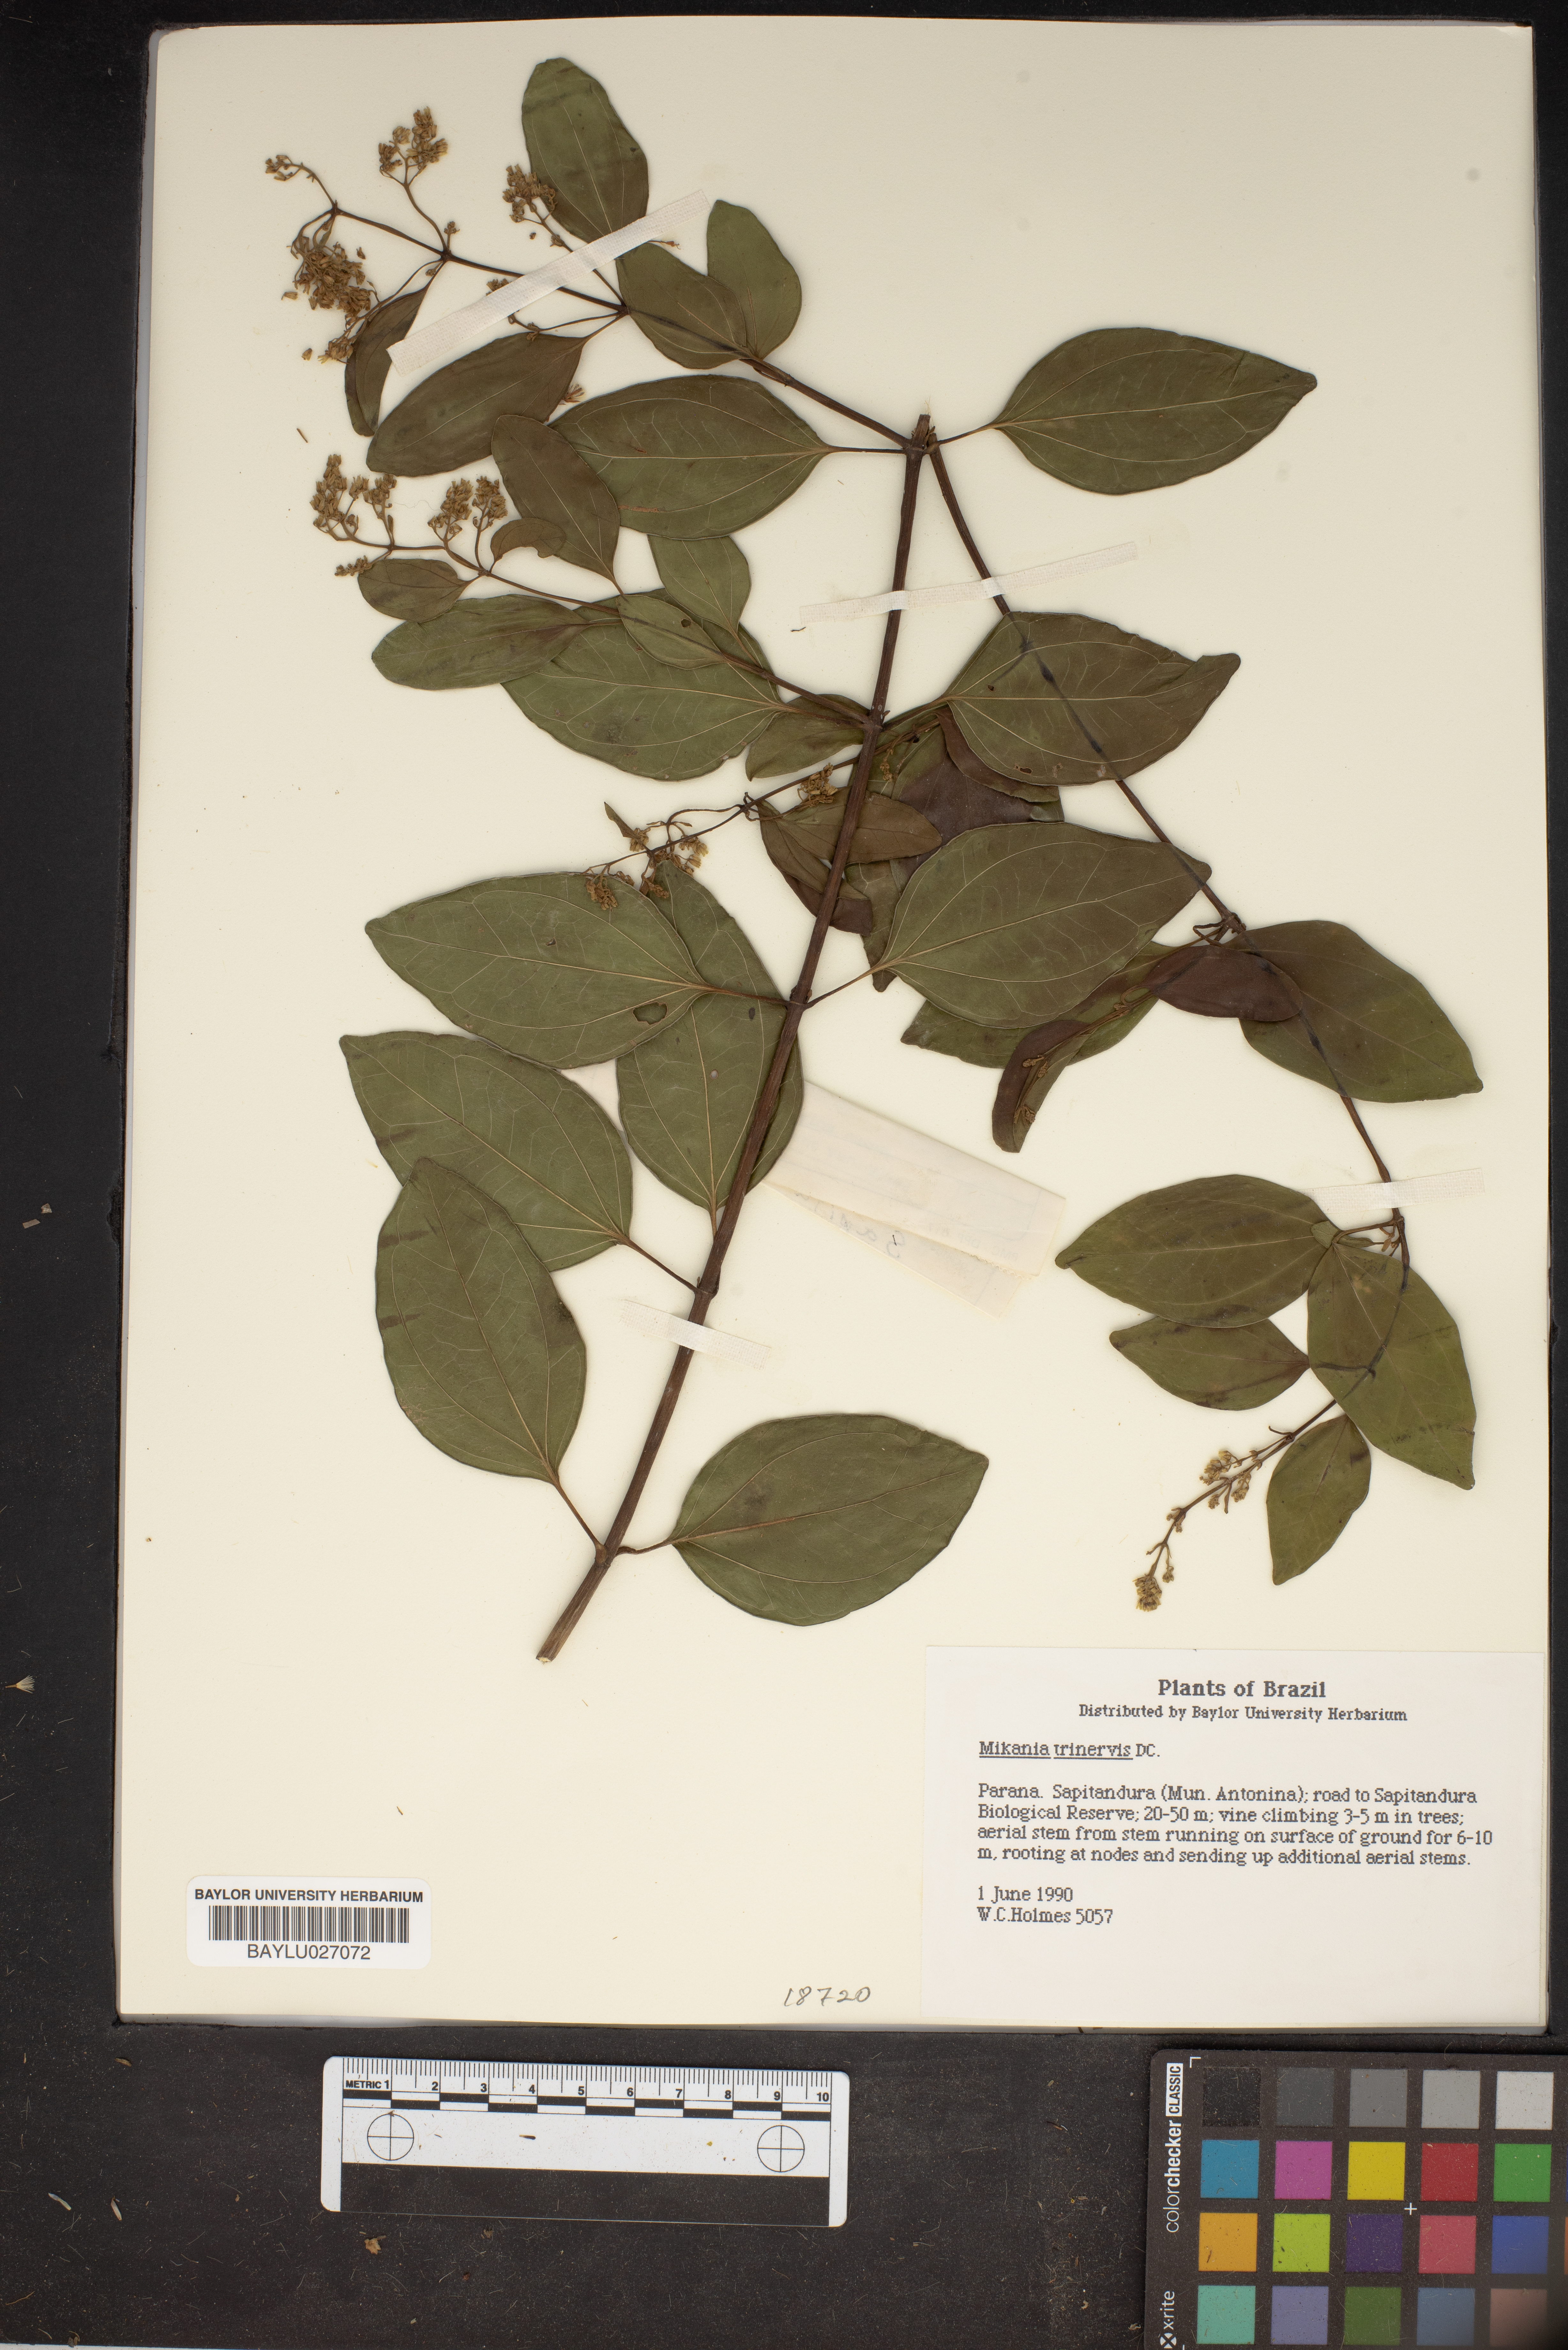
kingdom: Plantae
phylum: Tracheophyta
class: Magnoliopsida
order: Asterales
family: Asteraceae
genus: Mikania
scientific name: Mikania trinervis
